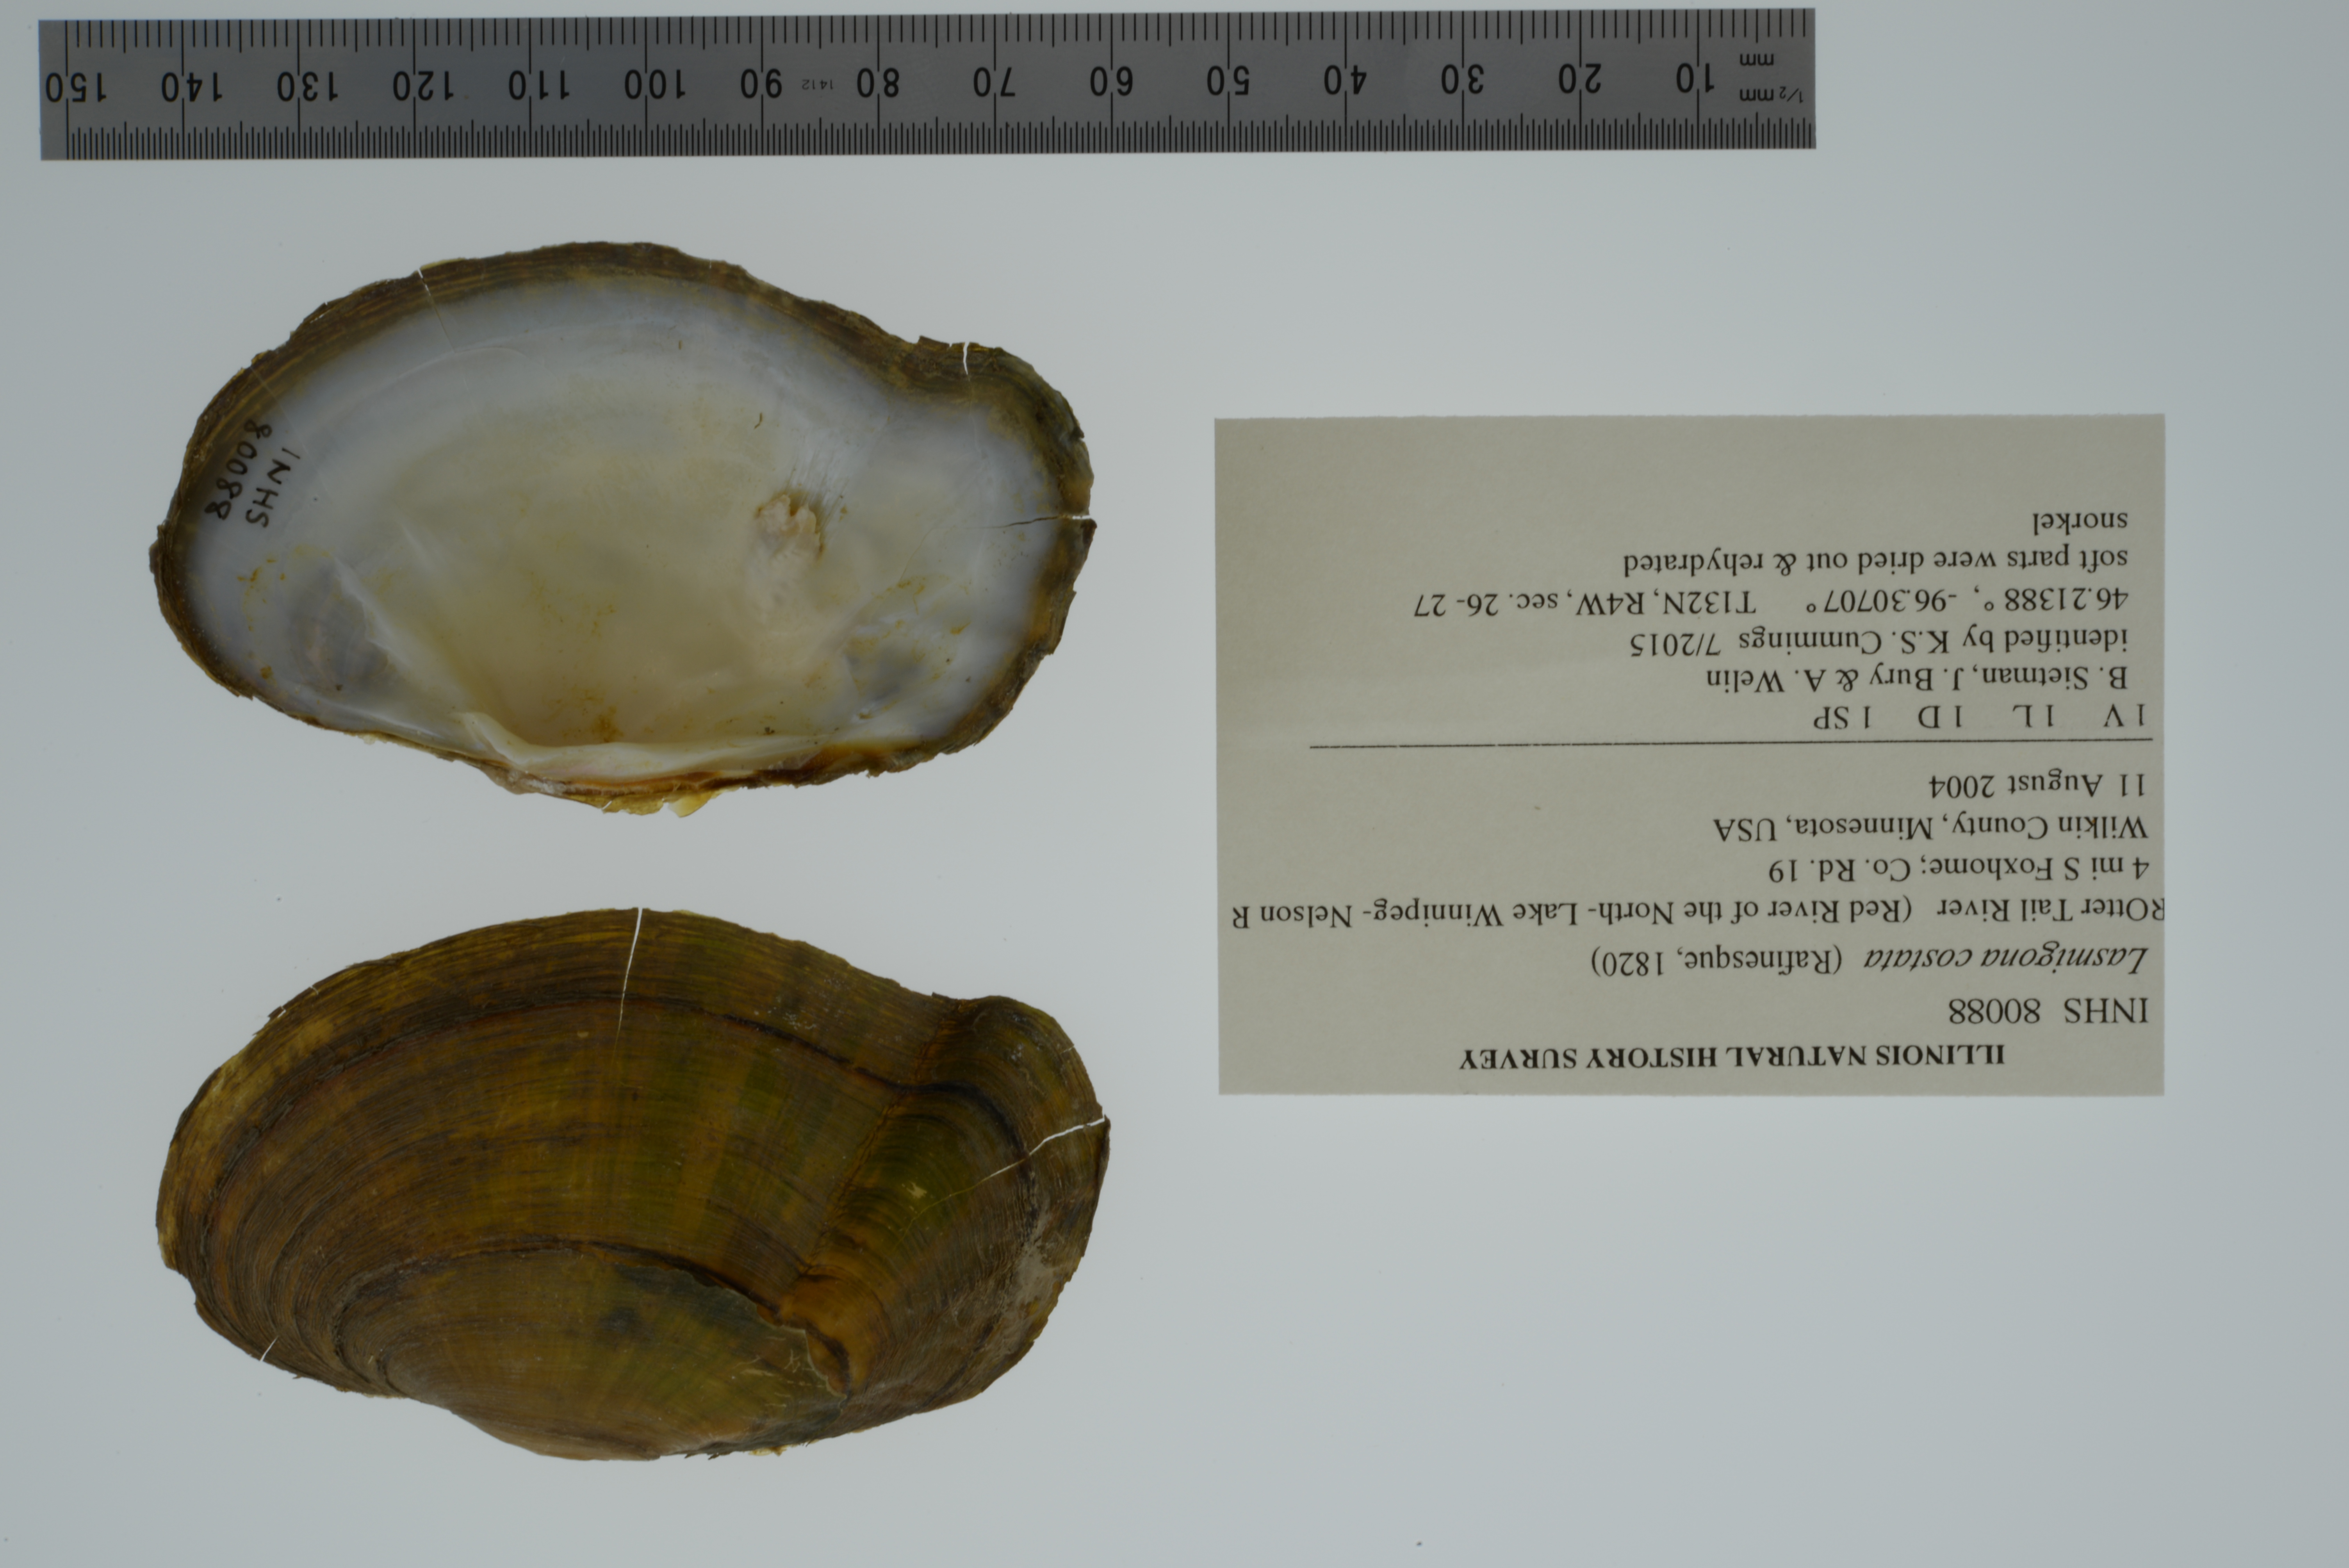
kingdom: Animalia
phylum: Mollusca
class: Bivalvia
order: Unionida
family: Unionidae
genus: Lasmigona
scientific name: Lasmigona costata
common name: Flutedshell
